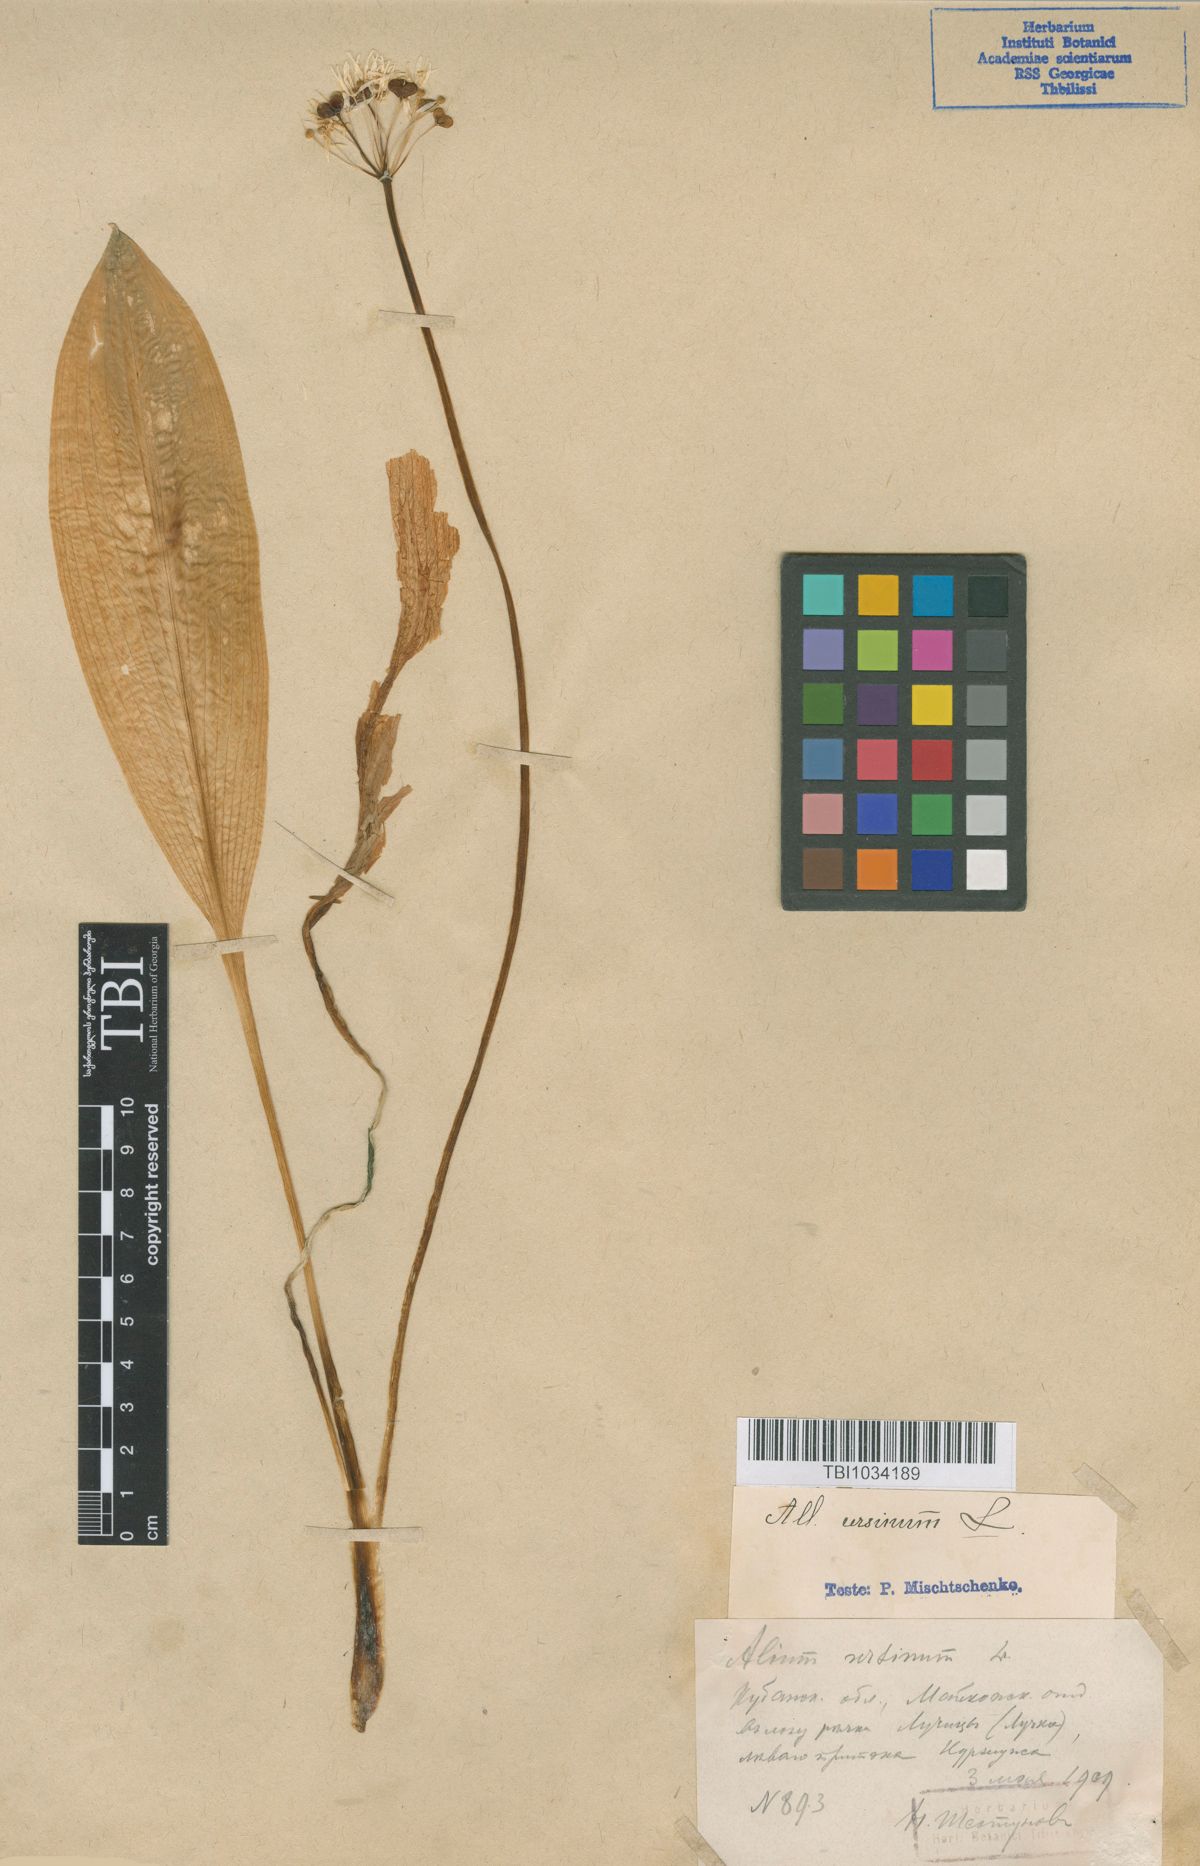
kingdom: Plantae
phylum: Tracheophyta
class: Liliopsida
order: Asparagales
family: Amaryllidaceae
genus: Allium
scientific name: Allium ursinum
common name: Ramsons
